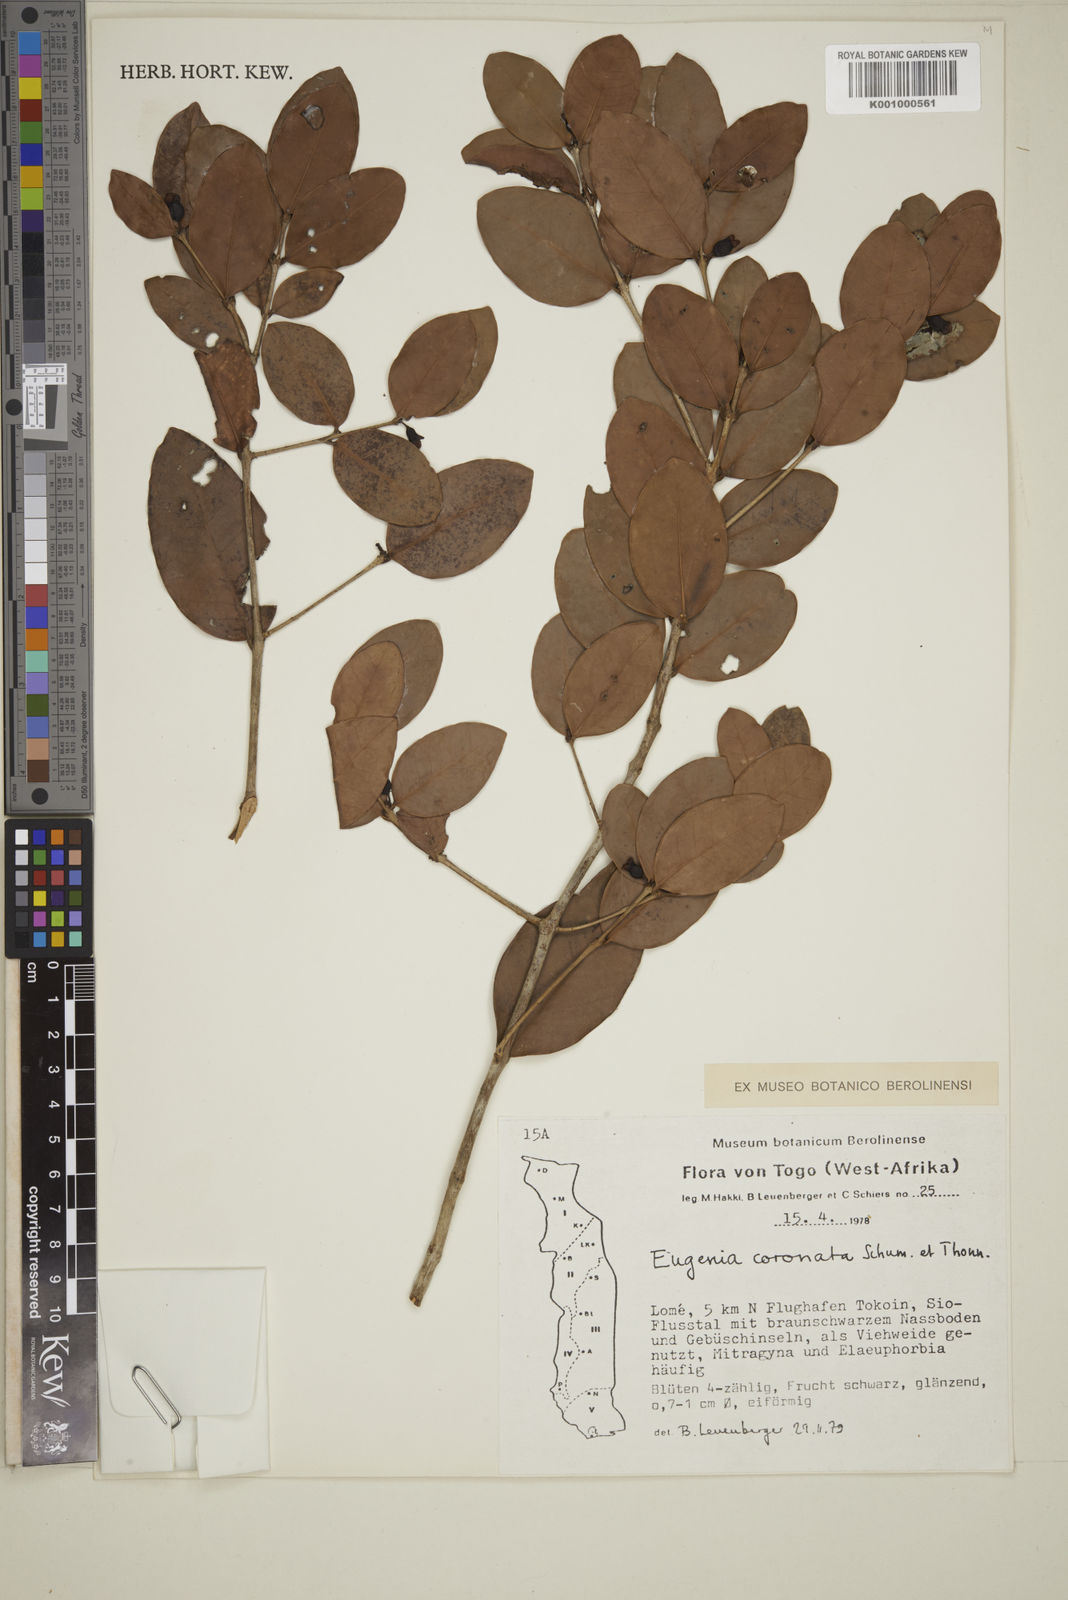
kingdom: Plantae
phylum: Tracheophyta
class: Magnoliopsida
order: Myrtales
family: Myrtaceae
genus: Eugenia
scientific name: Eugenia coronata
